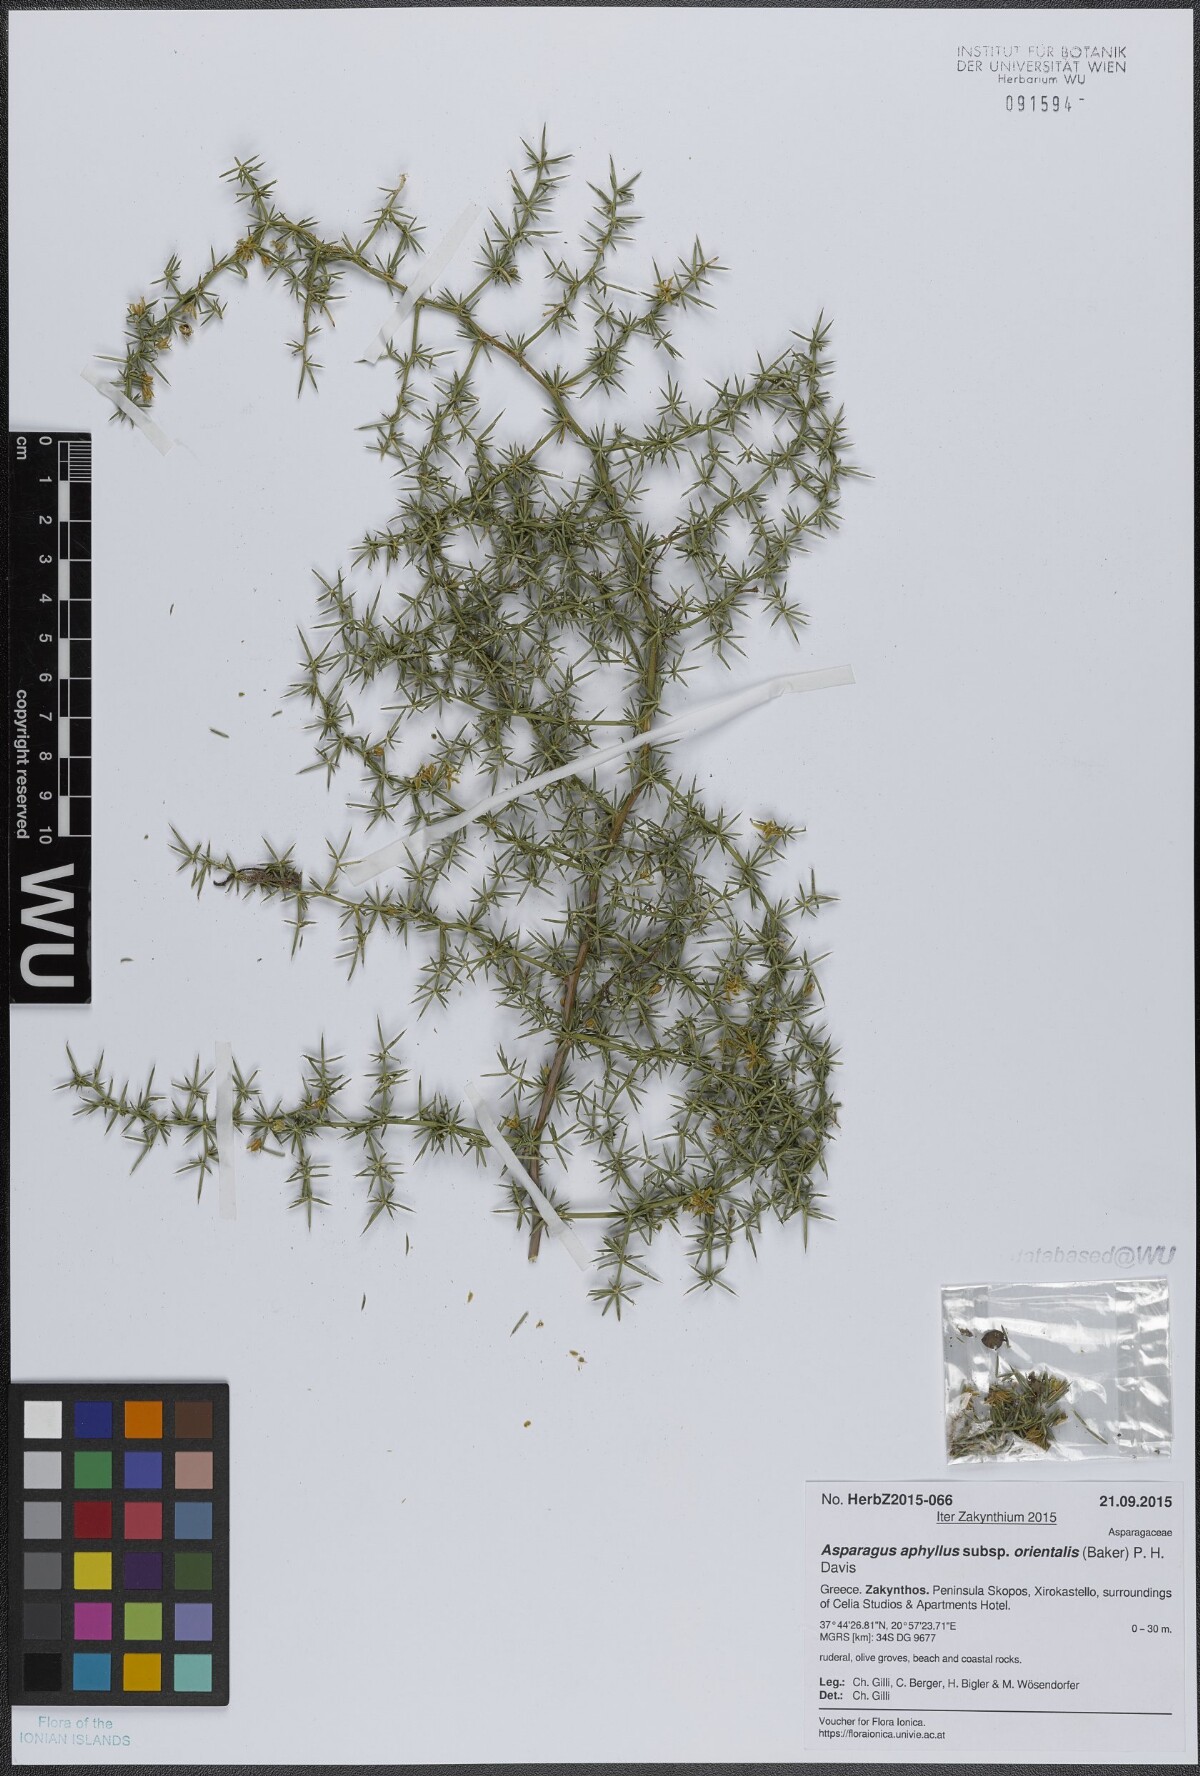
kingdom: Plantae
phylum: Tracheophyta
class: Liliopsida
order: Asparagales
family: Asparagaceae
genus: Asparagus
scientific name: Asparagus aphyllus
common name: Mediterranean asparagus
